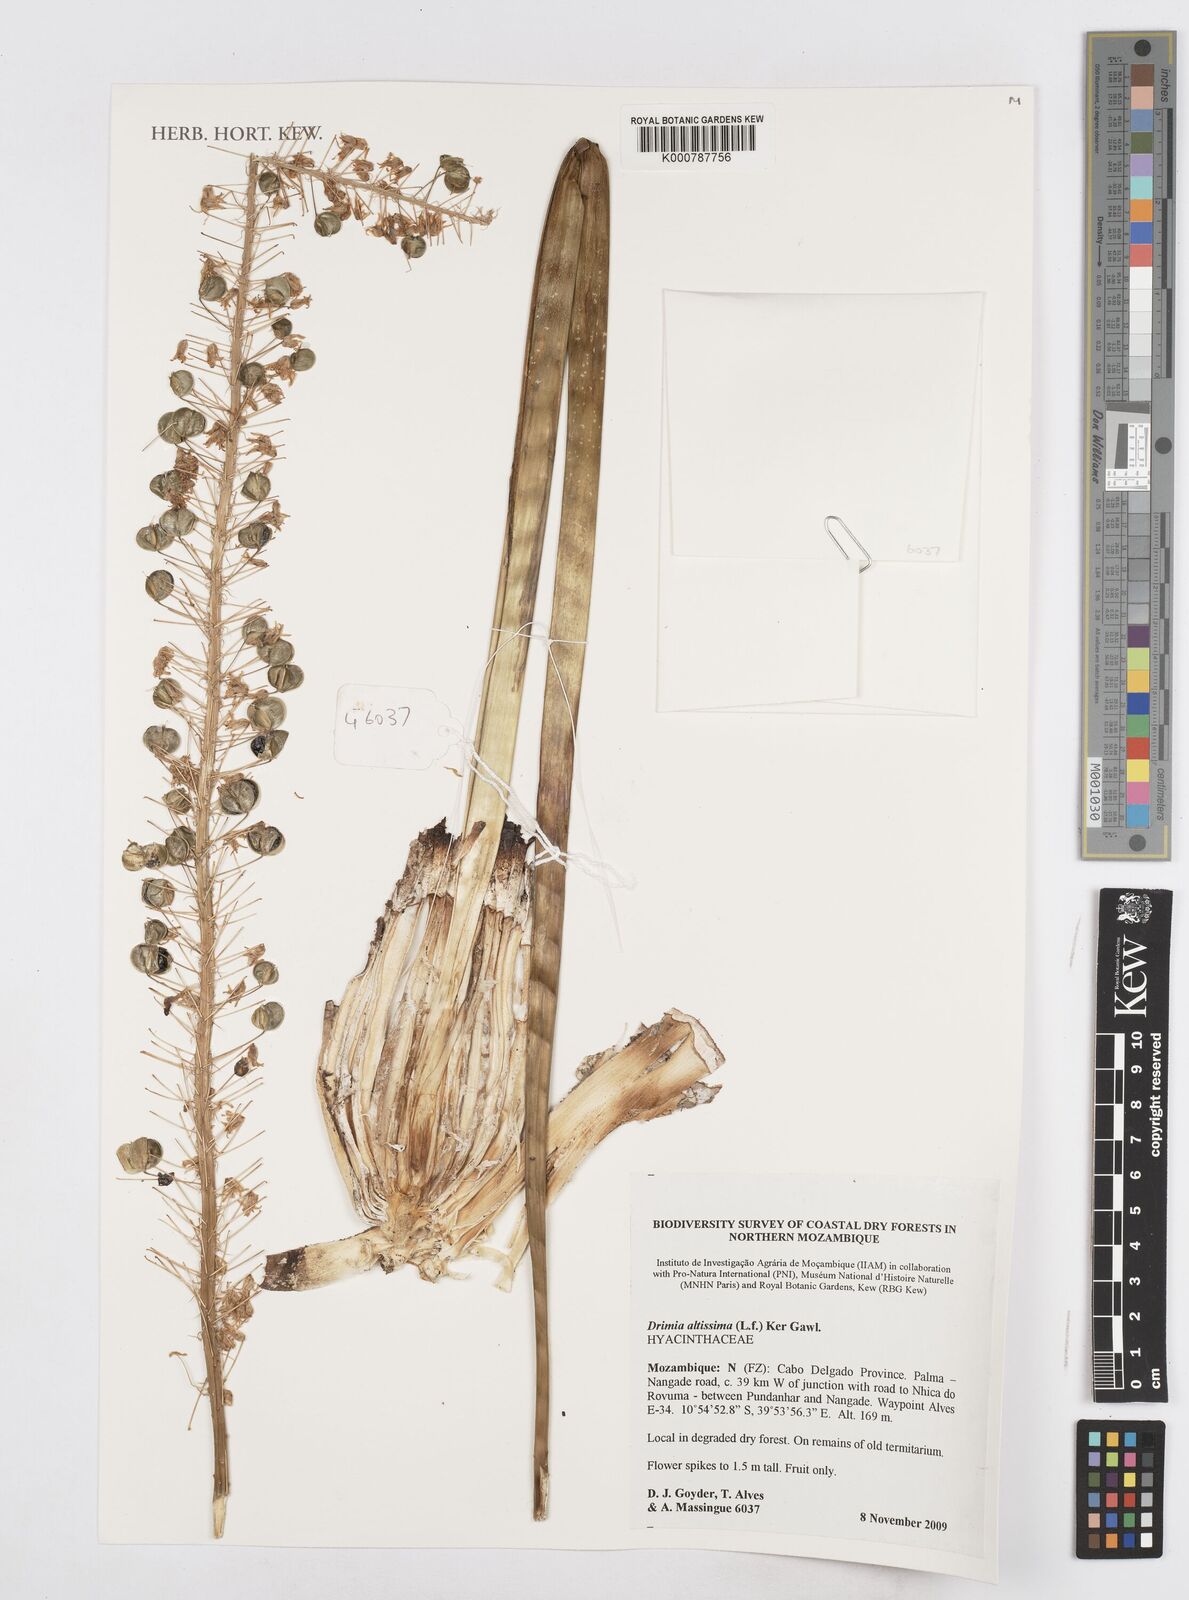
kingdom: Plantae
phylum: Tracheophyta
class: Liliopsida
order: Asparagales
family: Asparagaceae
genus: Drimia
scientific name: Drimia altissima
